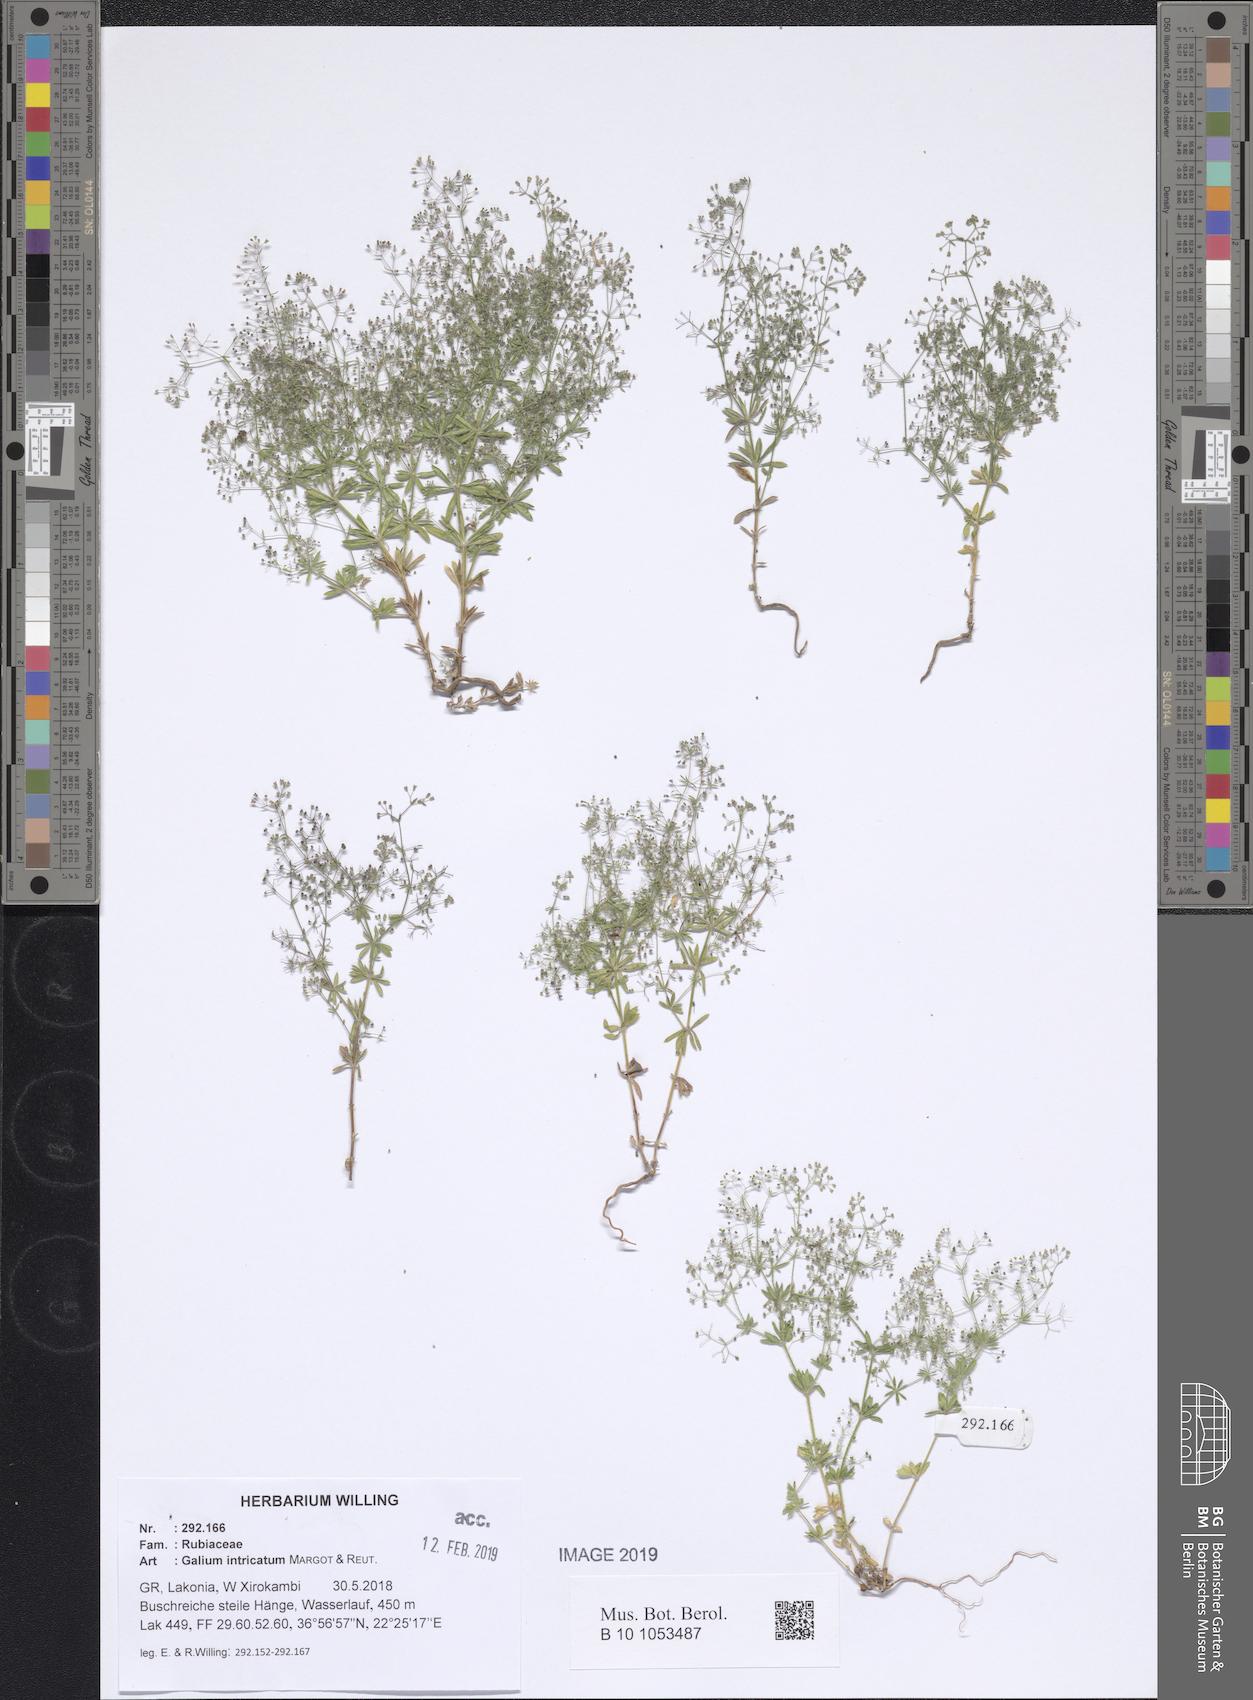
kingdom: Plantae
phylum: Tracheophyta
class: Magnoliopsida
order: Gentianales
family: Rubiaceae
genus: Galium
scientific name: Galium intricatum
